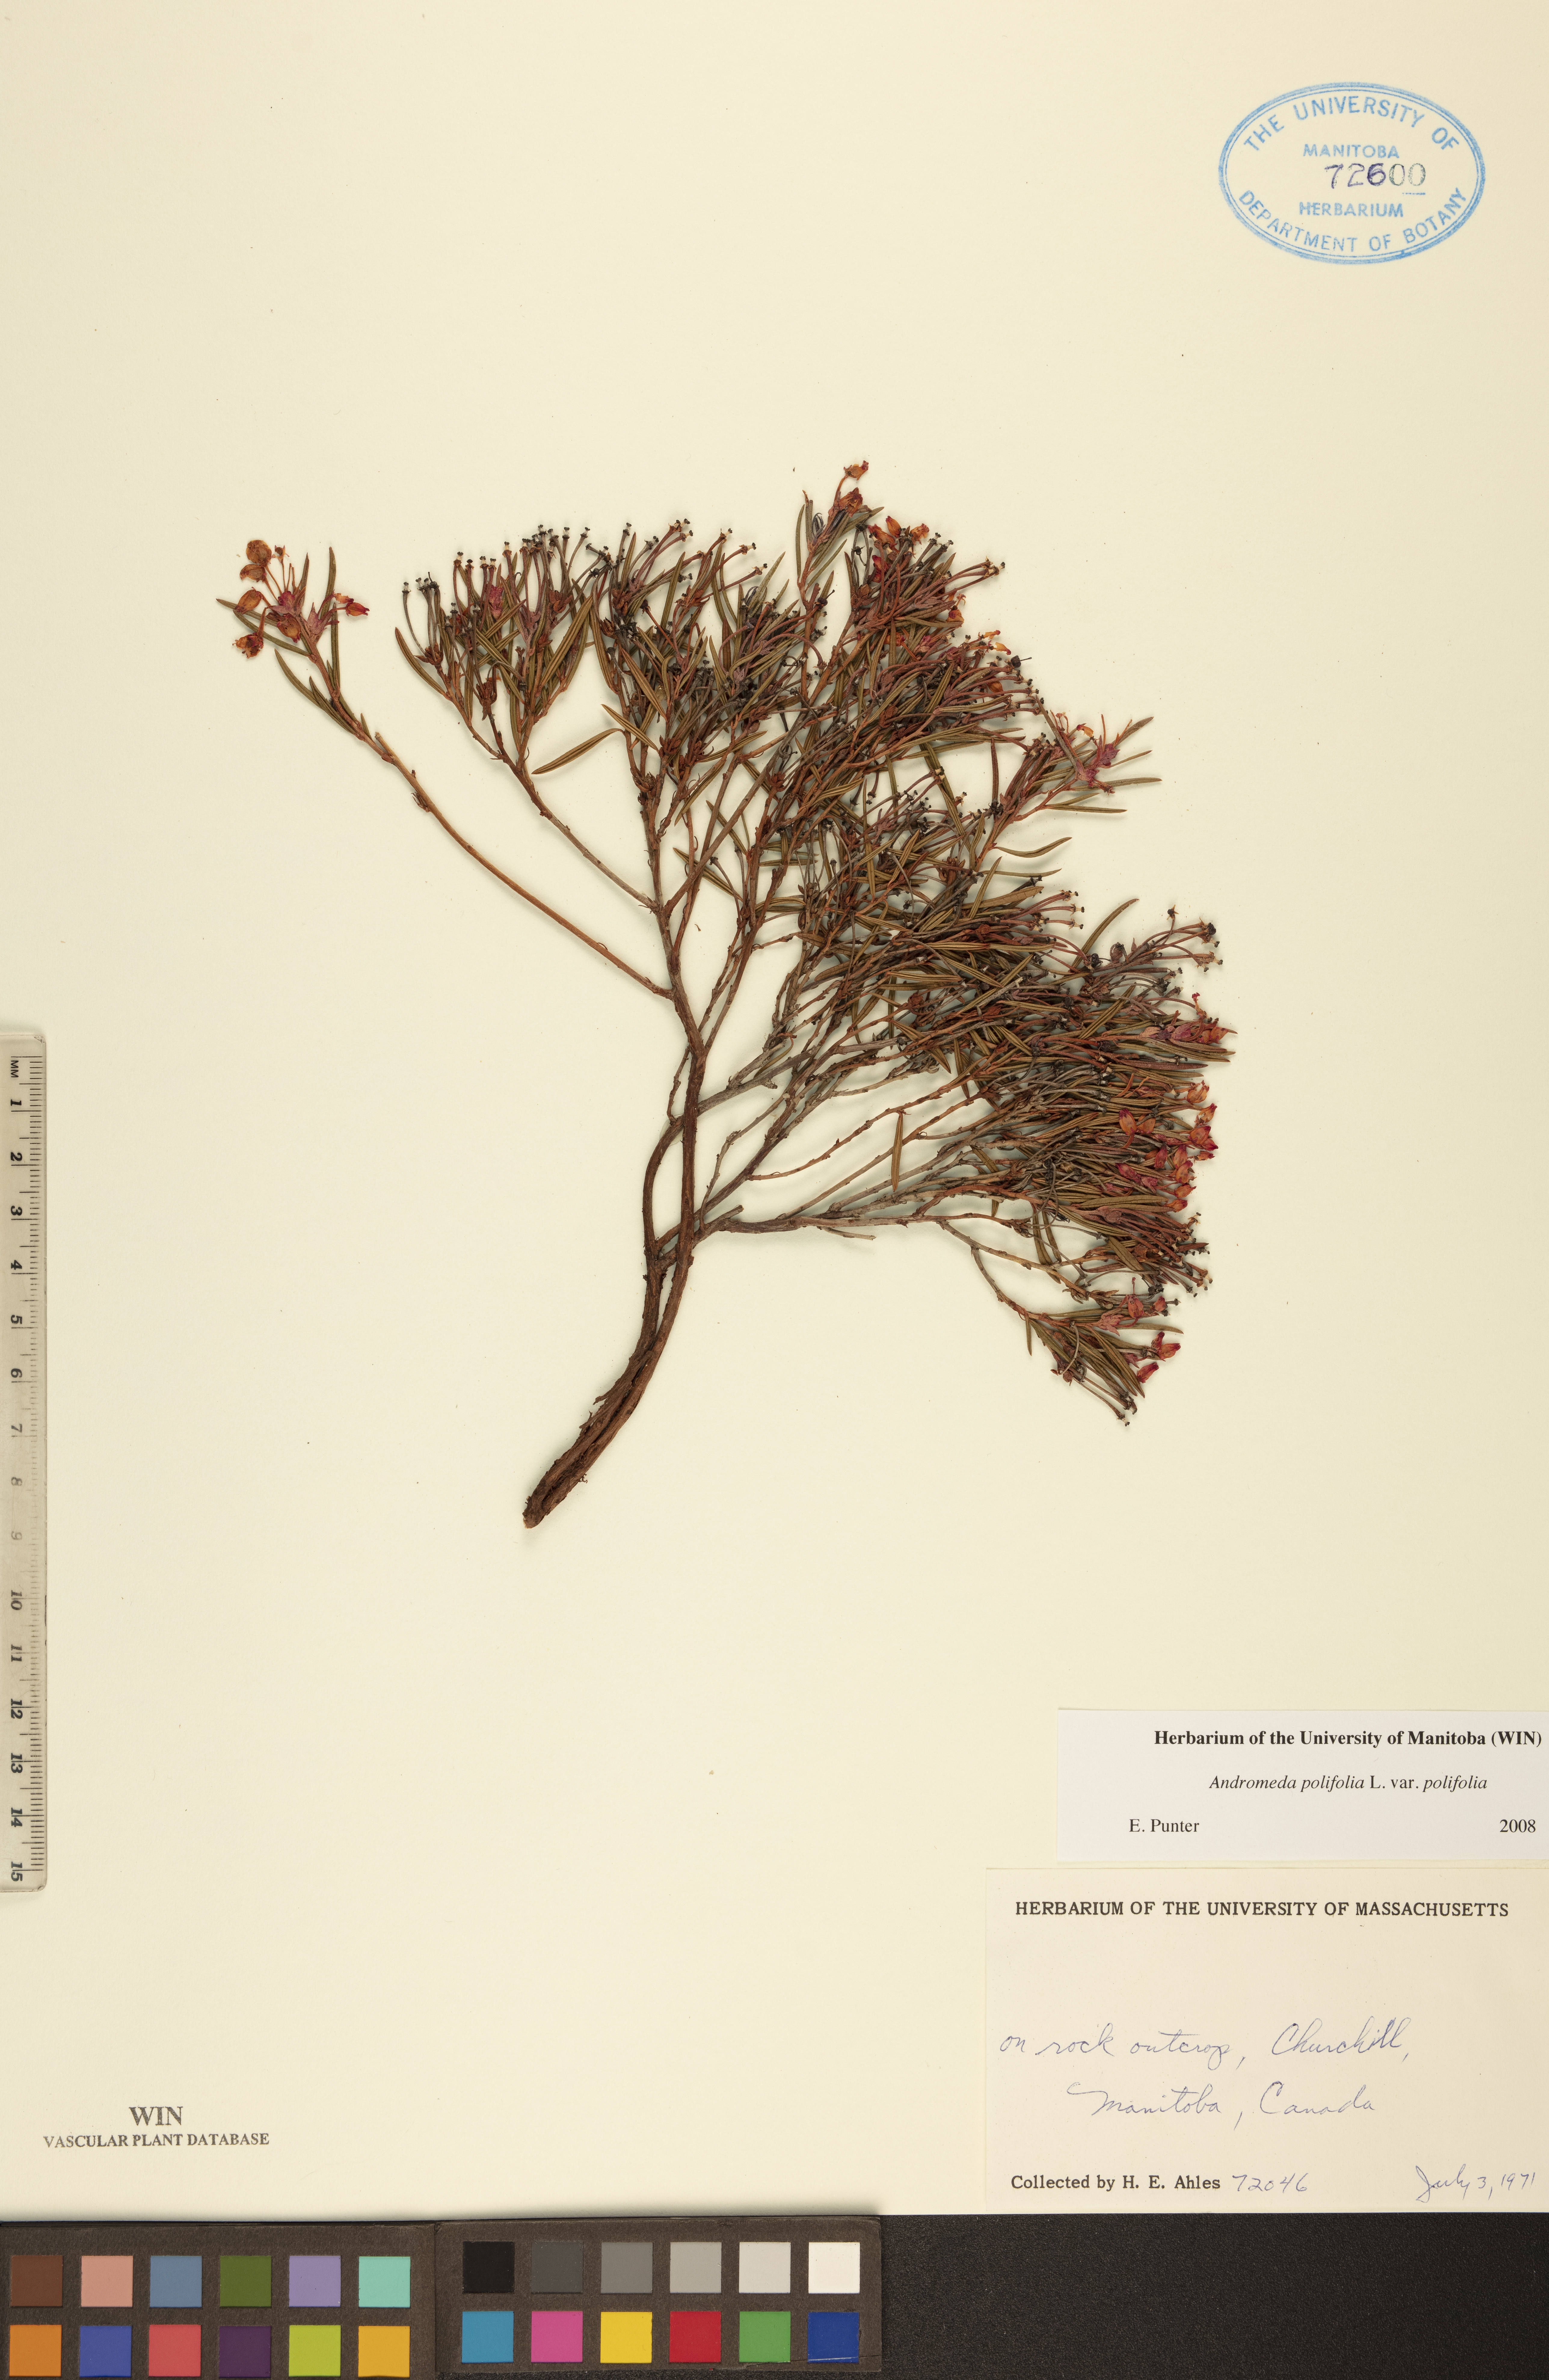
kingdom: Plantae
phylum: Tracheophyta
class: Magnoliopsida
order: Ericales
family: Ericaceae
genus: Andromeda
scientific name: Andromeda polifolia
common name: Bog-rosemary
